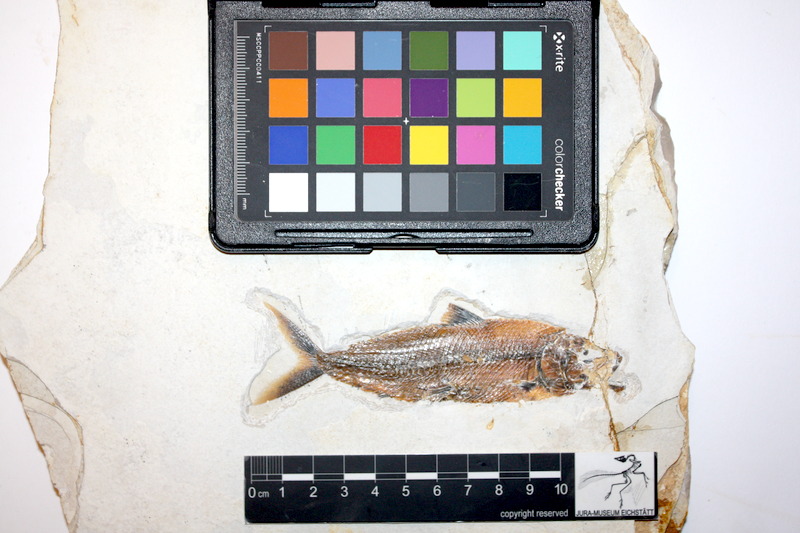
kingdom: Animalia
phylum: Chordata
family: Ankylophoridae
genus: Siemensichthys
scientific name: Siemensichthys
